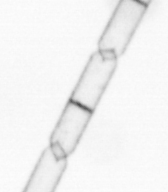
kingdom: Chromista
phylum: Ochrophyta
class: Bacillariophyceae
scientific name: Bacillariophyceae
